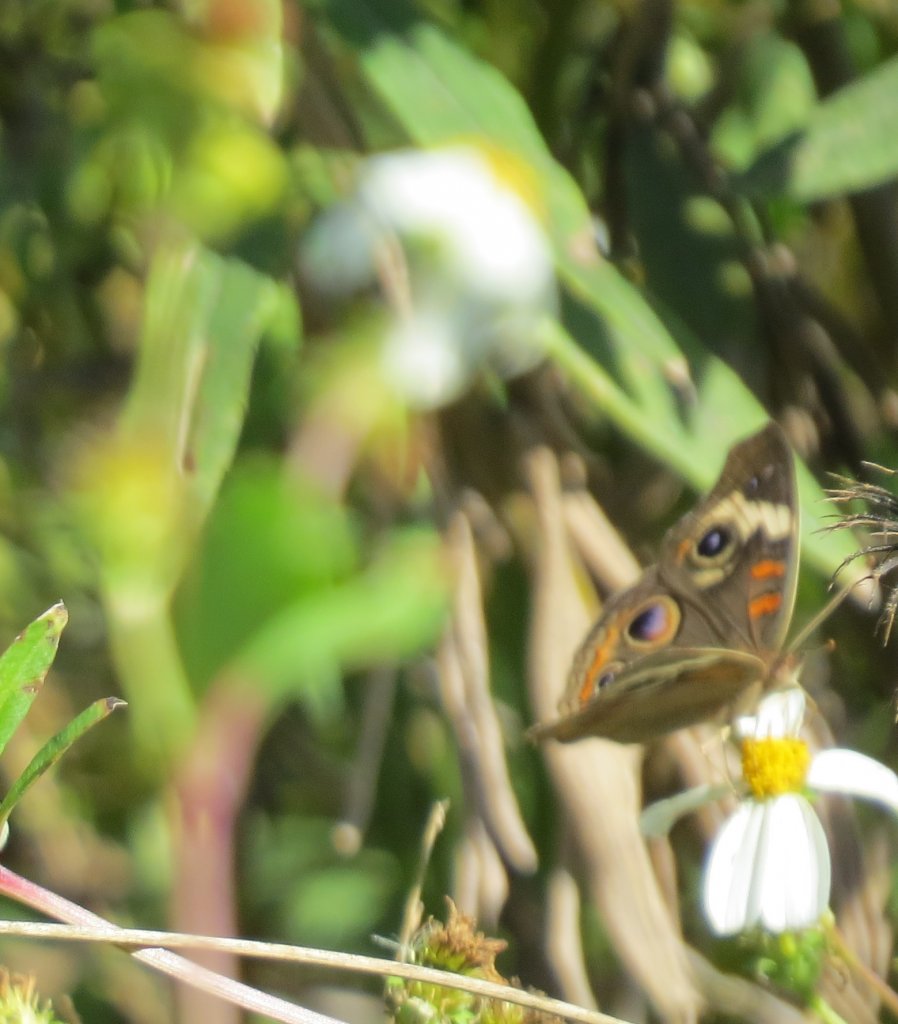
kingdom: Animalia
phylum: Arthropoda
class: Insecta
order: Lepidoptera
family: Nymphalidae
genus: Junonia
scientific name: Junonia coenia
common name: Common Buckeye
